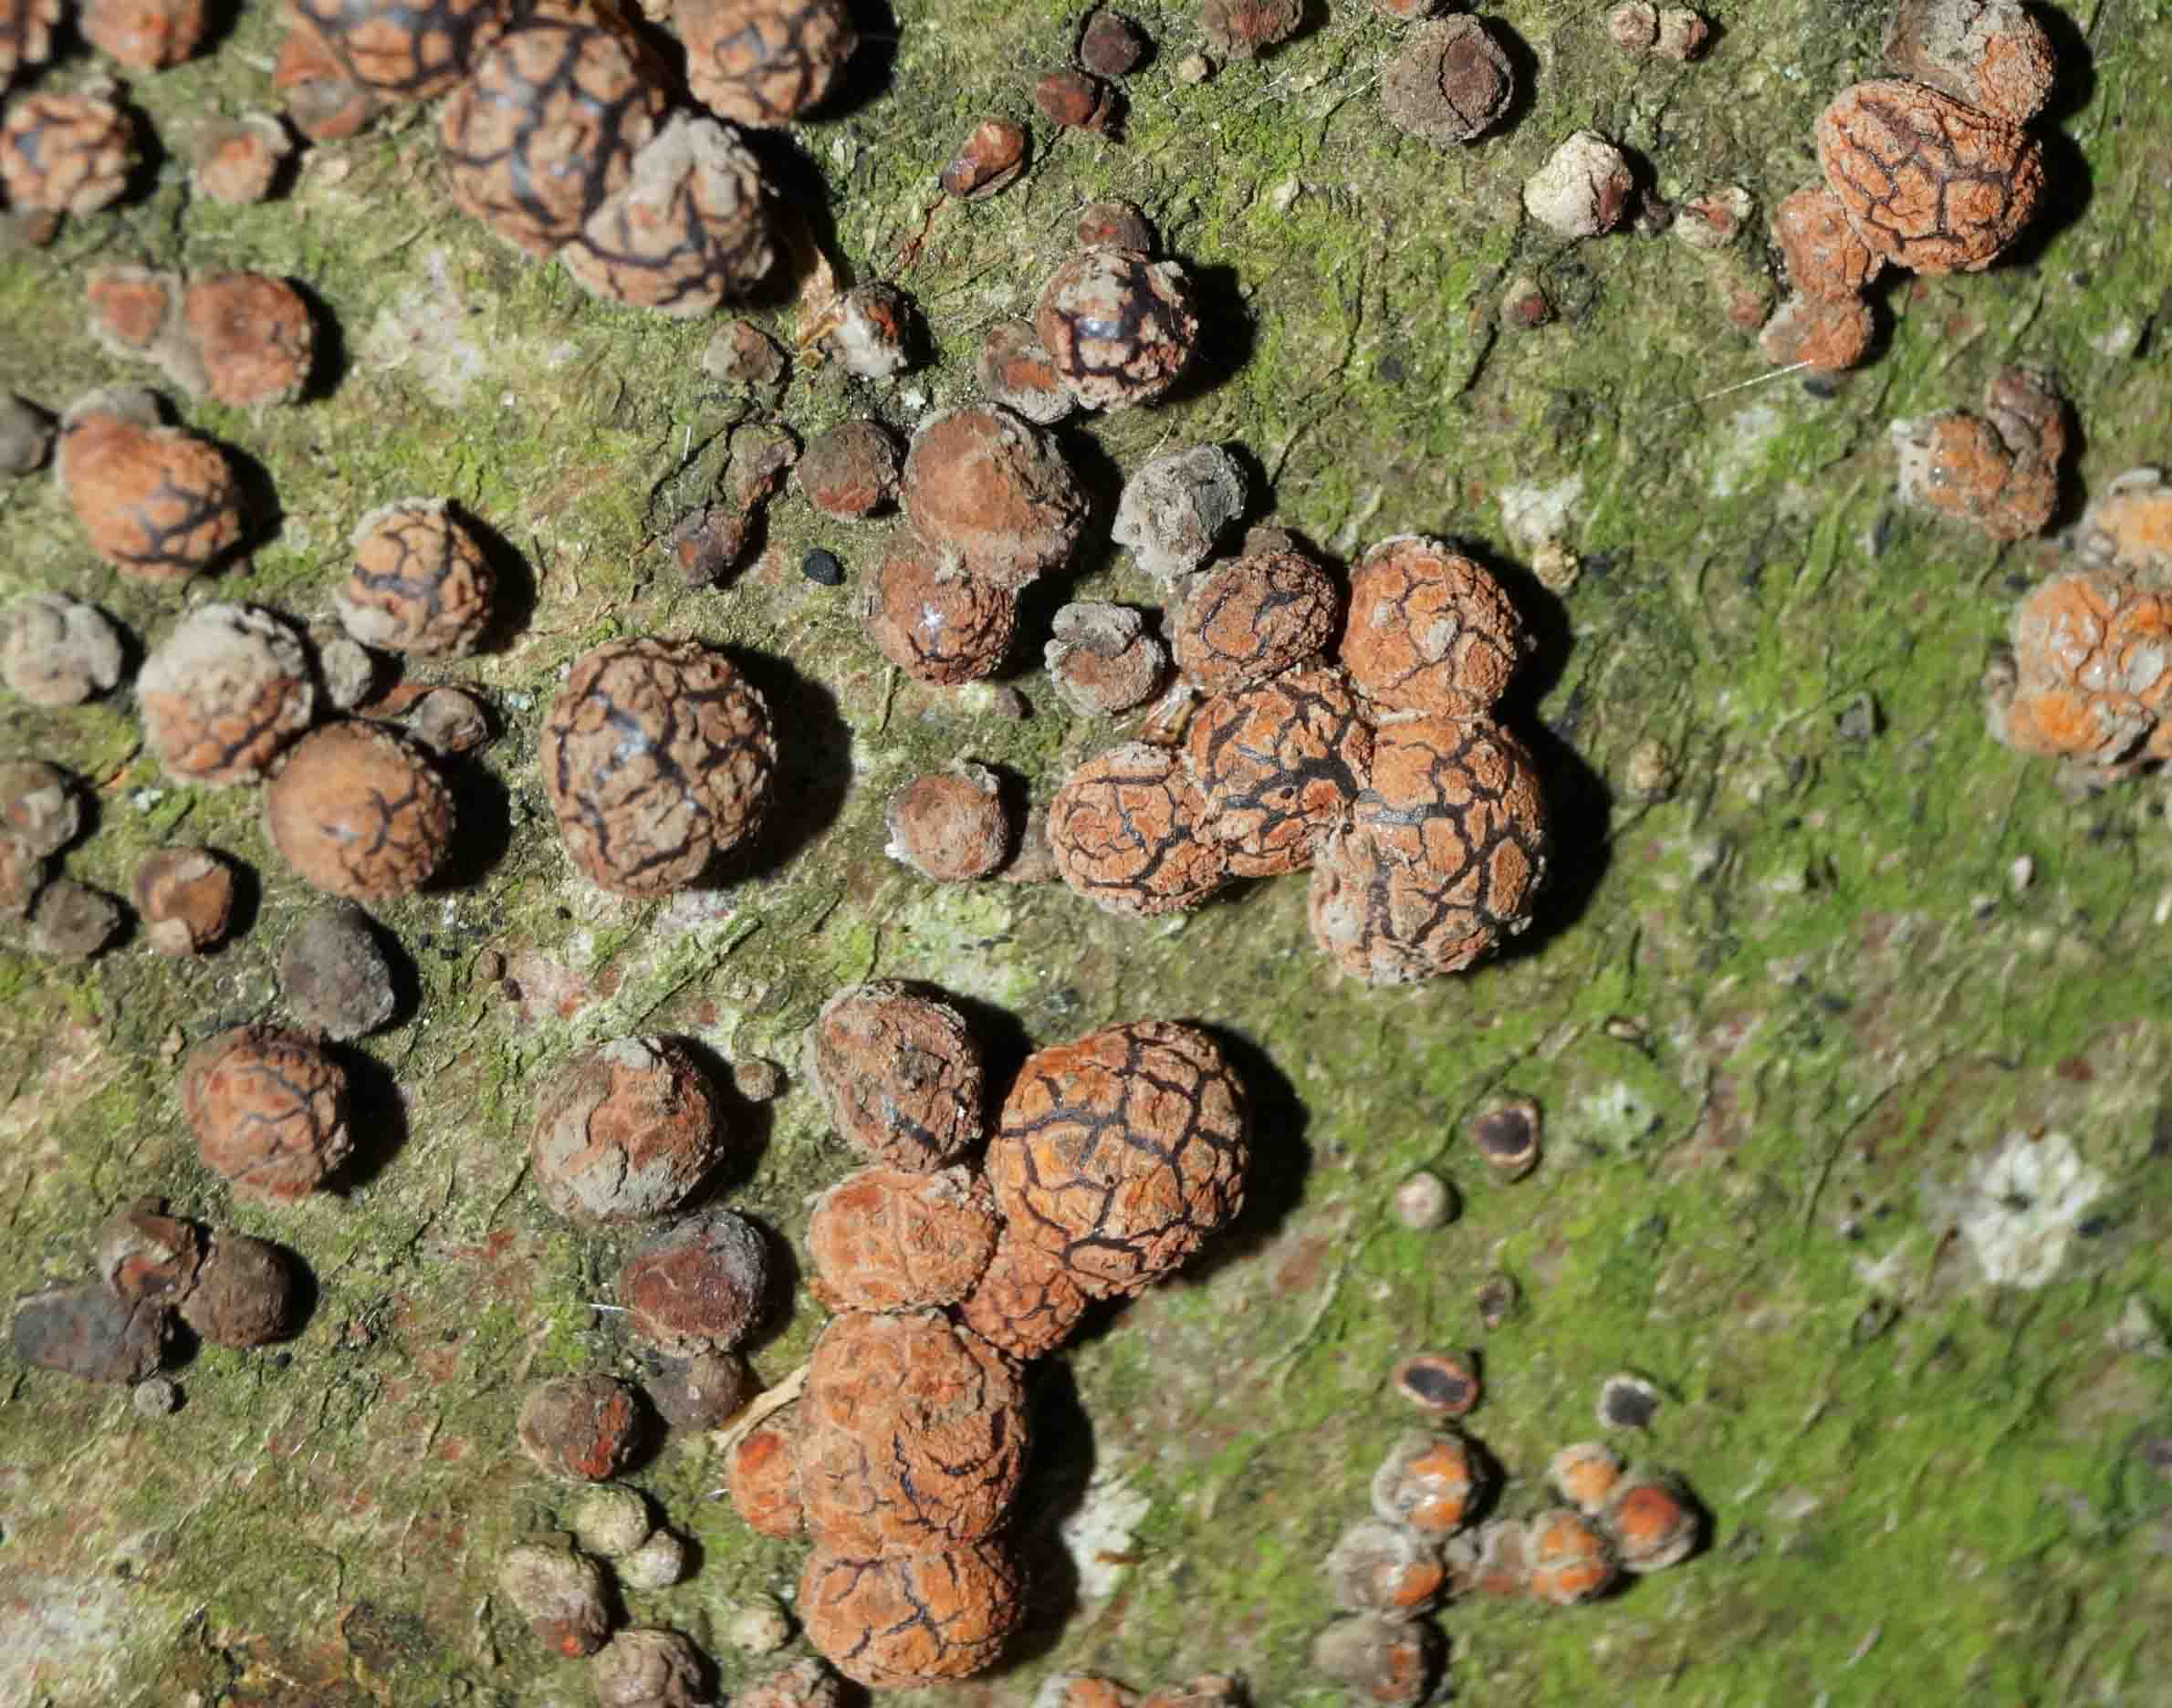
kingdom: Fungi
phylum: Ascomycota
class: Sordariomycetes
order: Xylariales
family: Hypoxylaceae
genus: Hypoxylon
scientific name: Hypoxylon fragiforme
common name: kuljordbær
